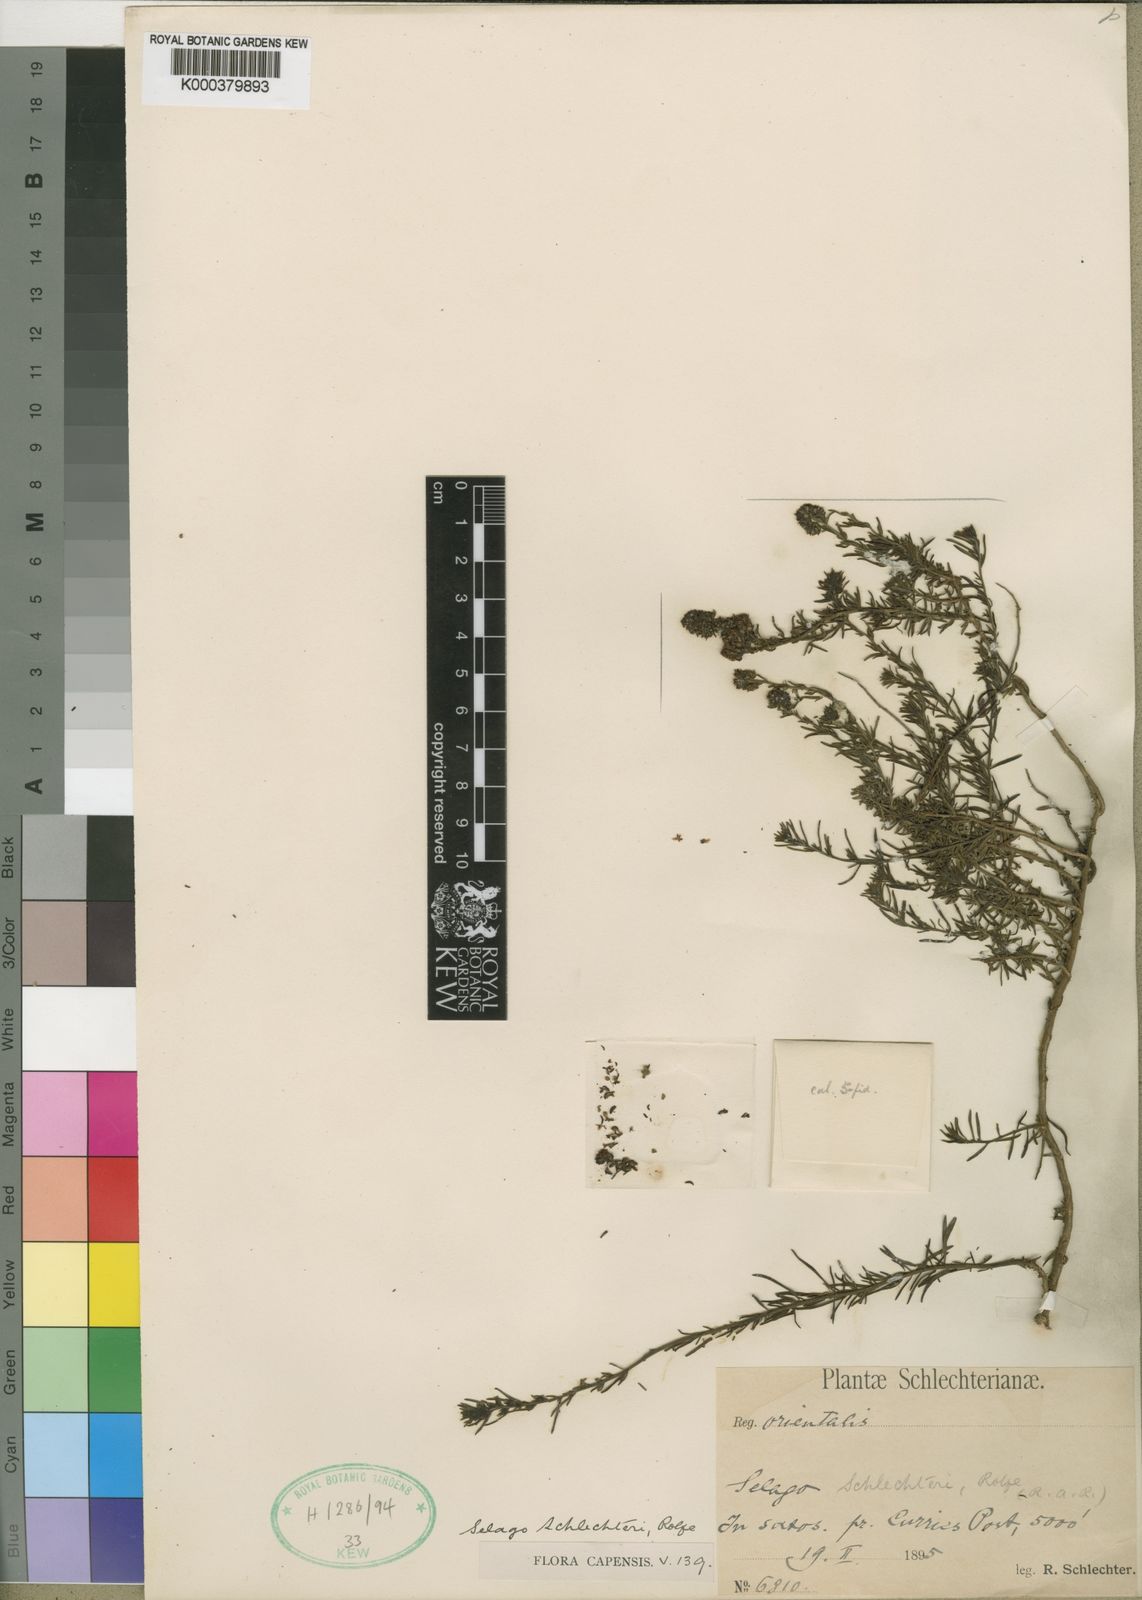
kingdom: Plantae
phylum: Tracheophyta
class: Magnoliopsida
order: Lamiales
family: Scrophulariaceae
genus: Selago
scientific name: Selago galpinii
